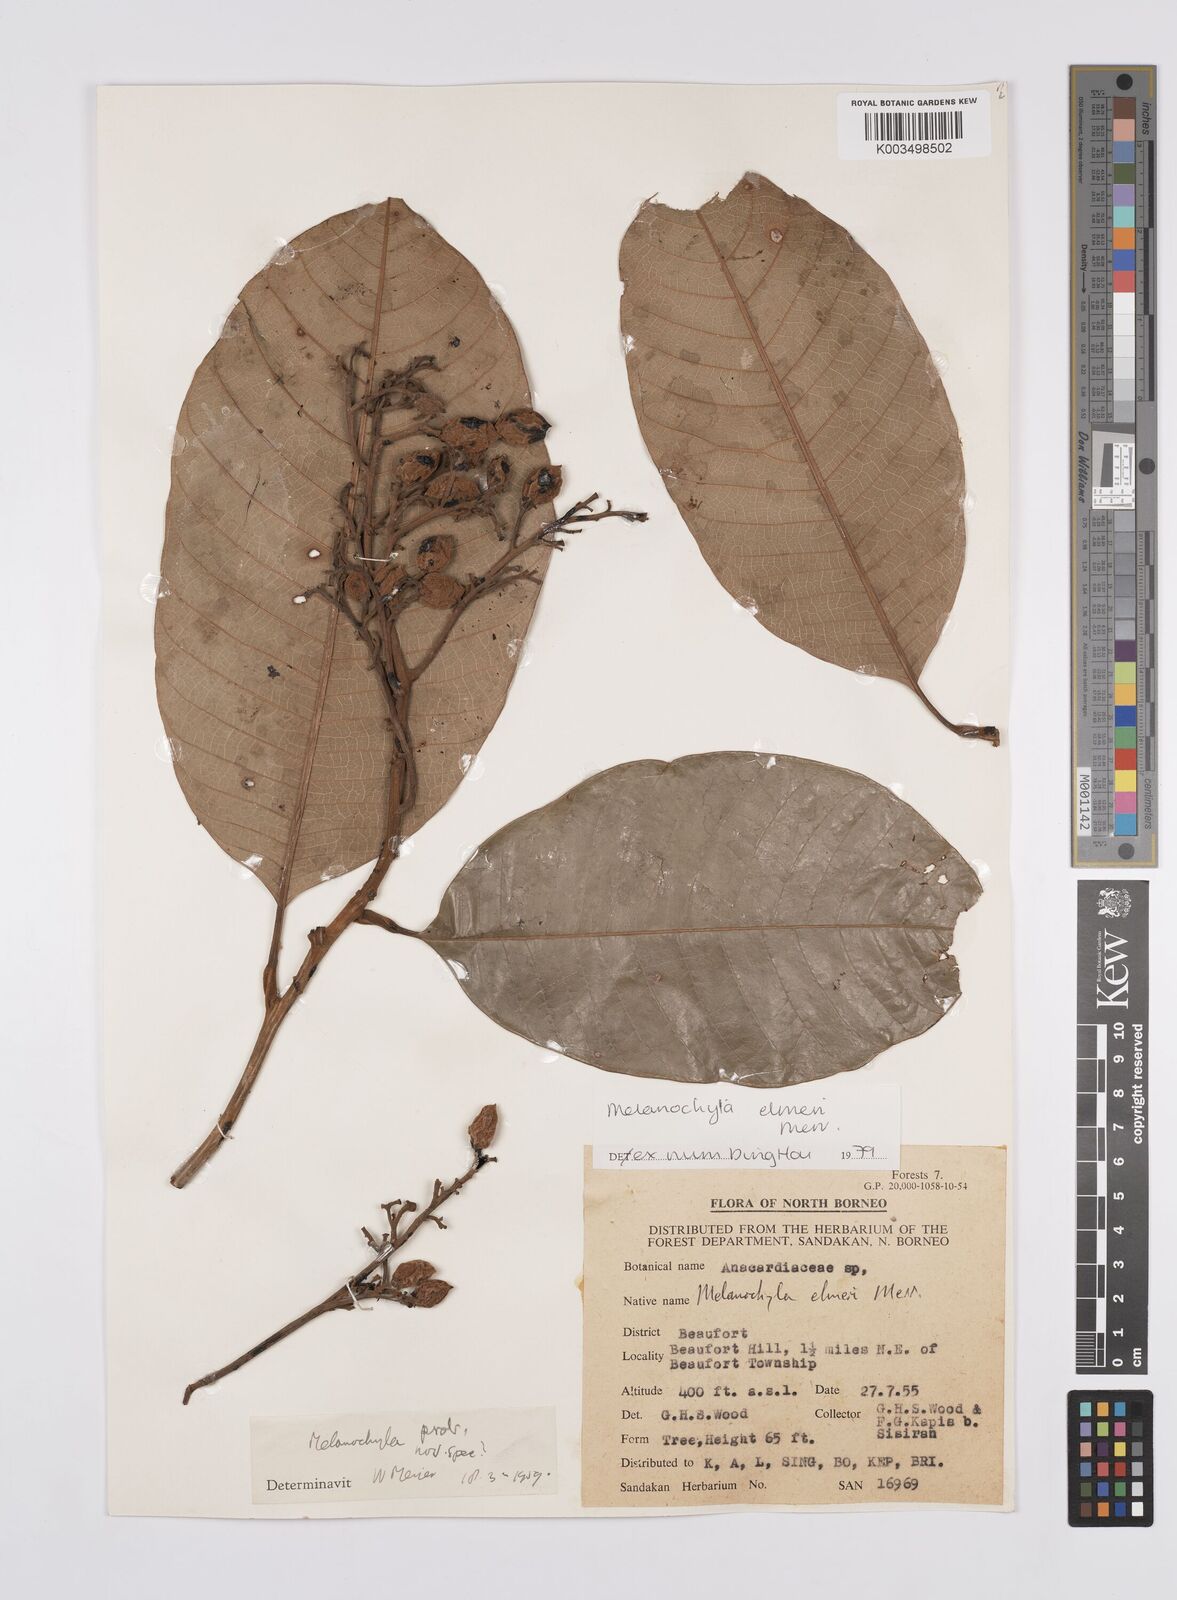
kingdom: Plantae
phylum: Tracheophyta
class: Magnoliopsida
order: Sapindales
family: Anacardiaceae
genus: Melanochyla
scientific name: Melanochyla elmeri
